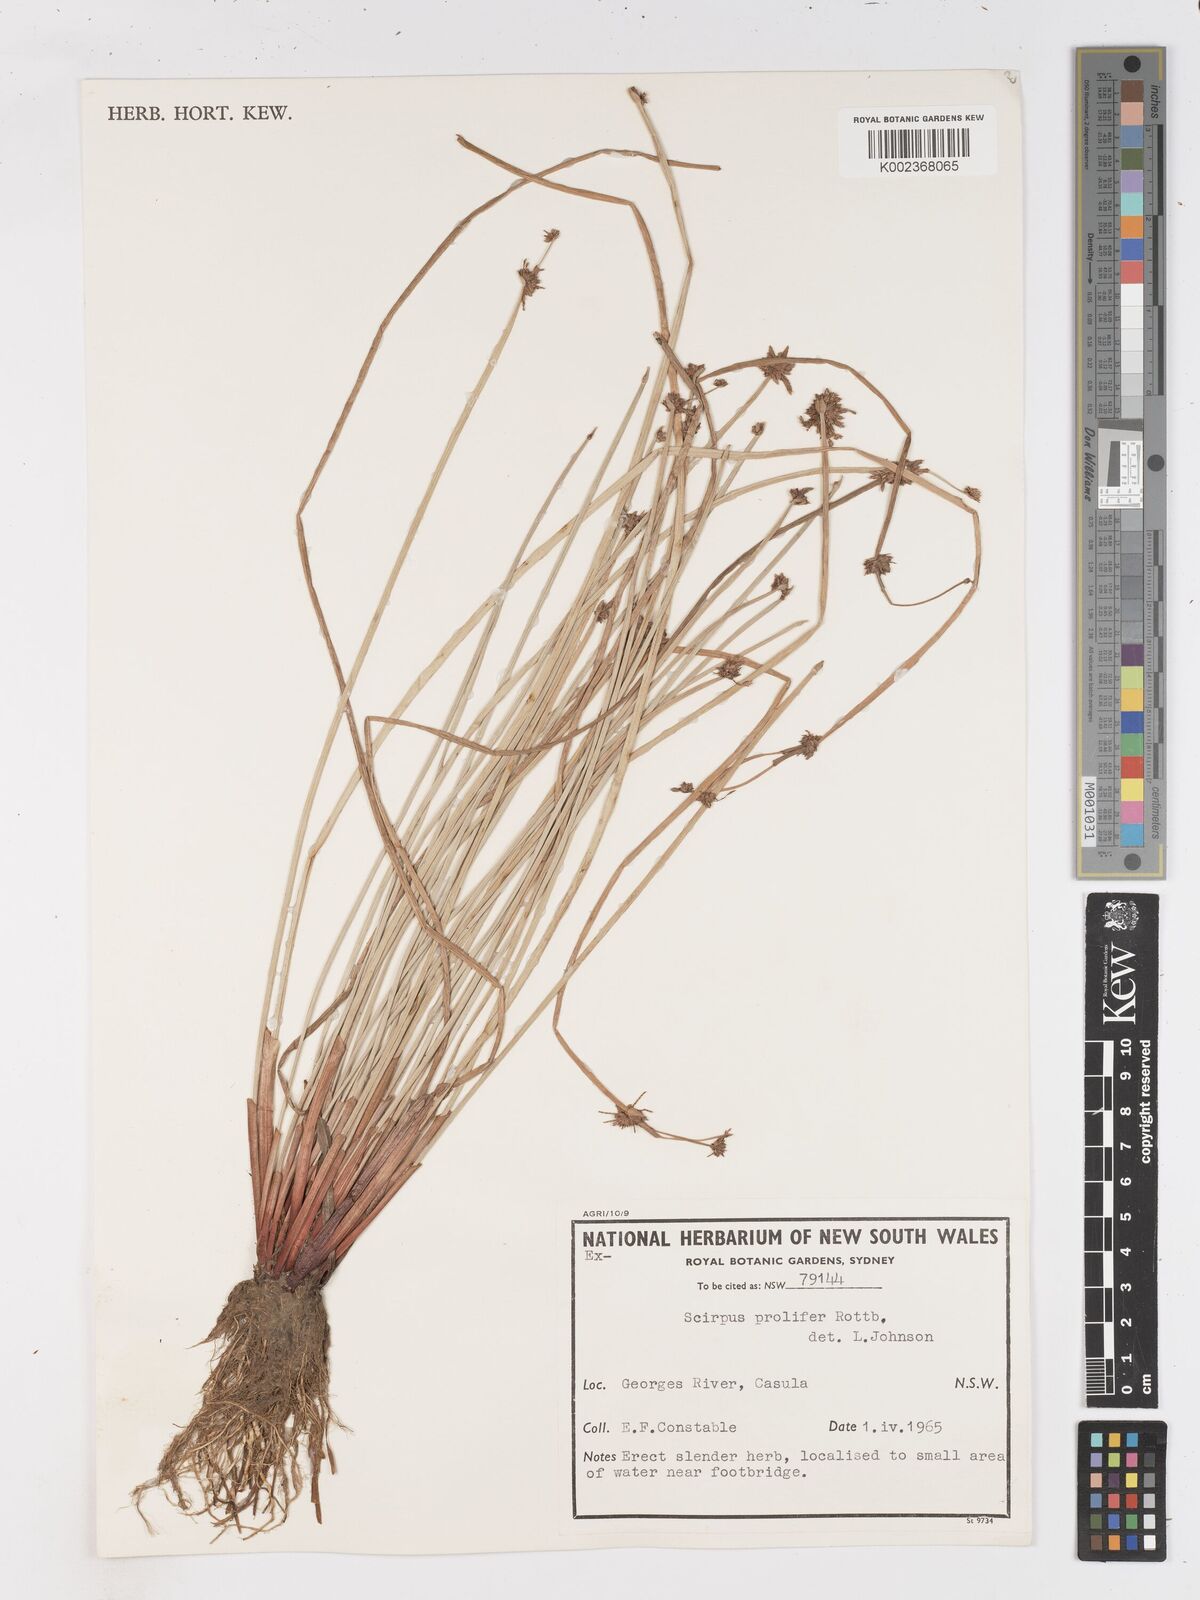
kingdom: Plantae
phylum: Tracheophyta
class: Liliopsida
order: Poales
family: Cyperaceae
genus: Isolepis
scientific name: Isolepis prolifera
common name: Proliferating bulrush
